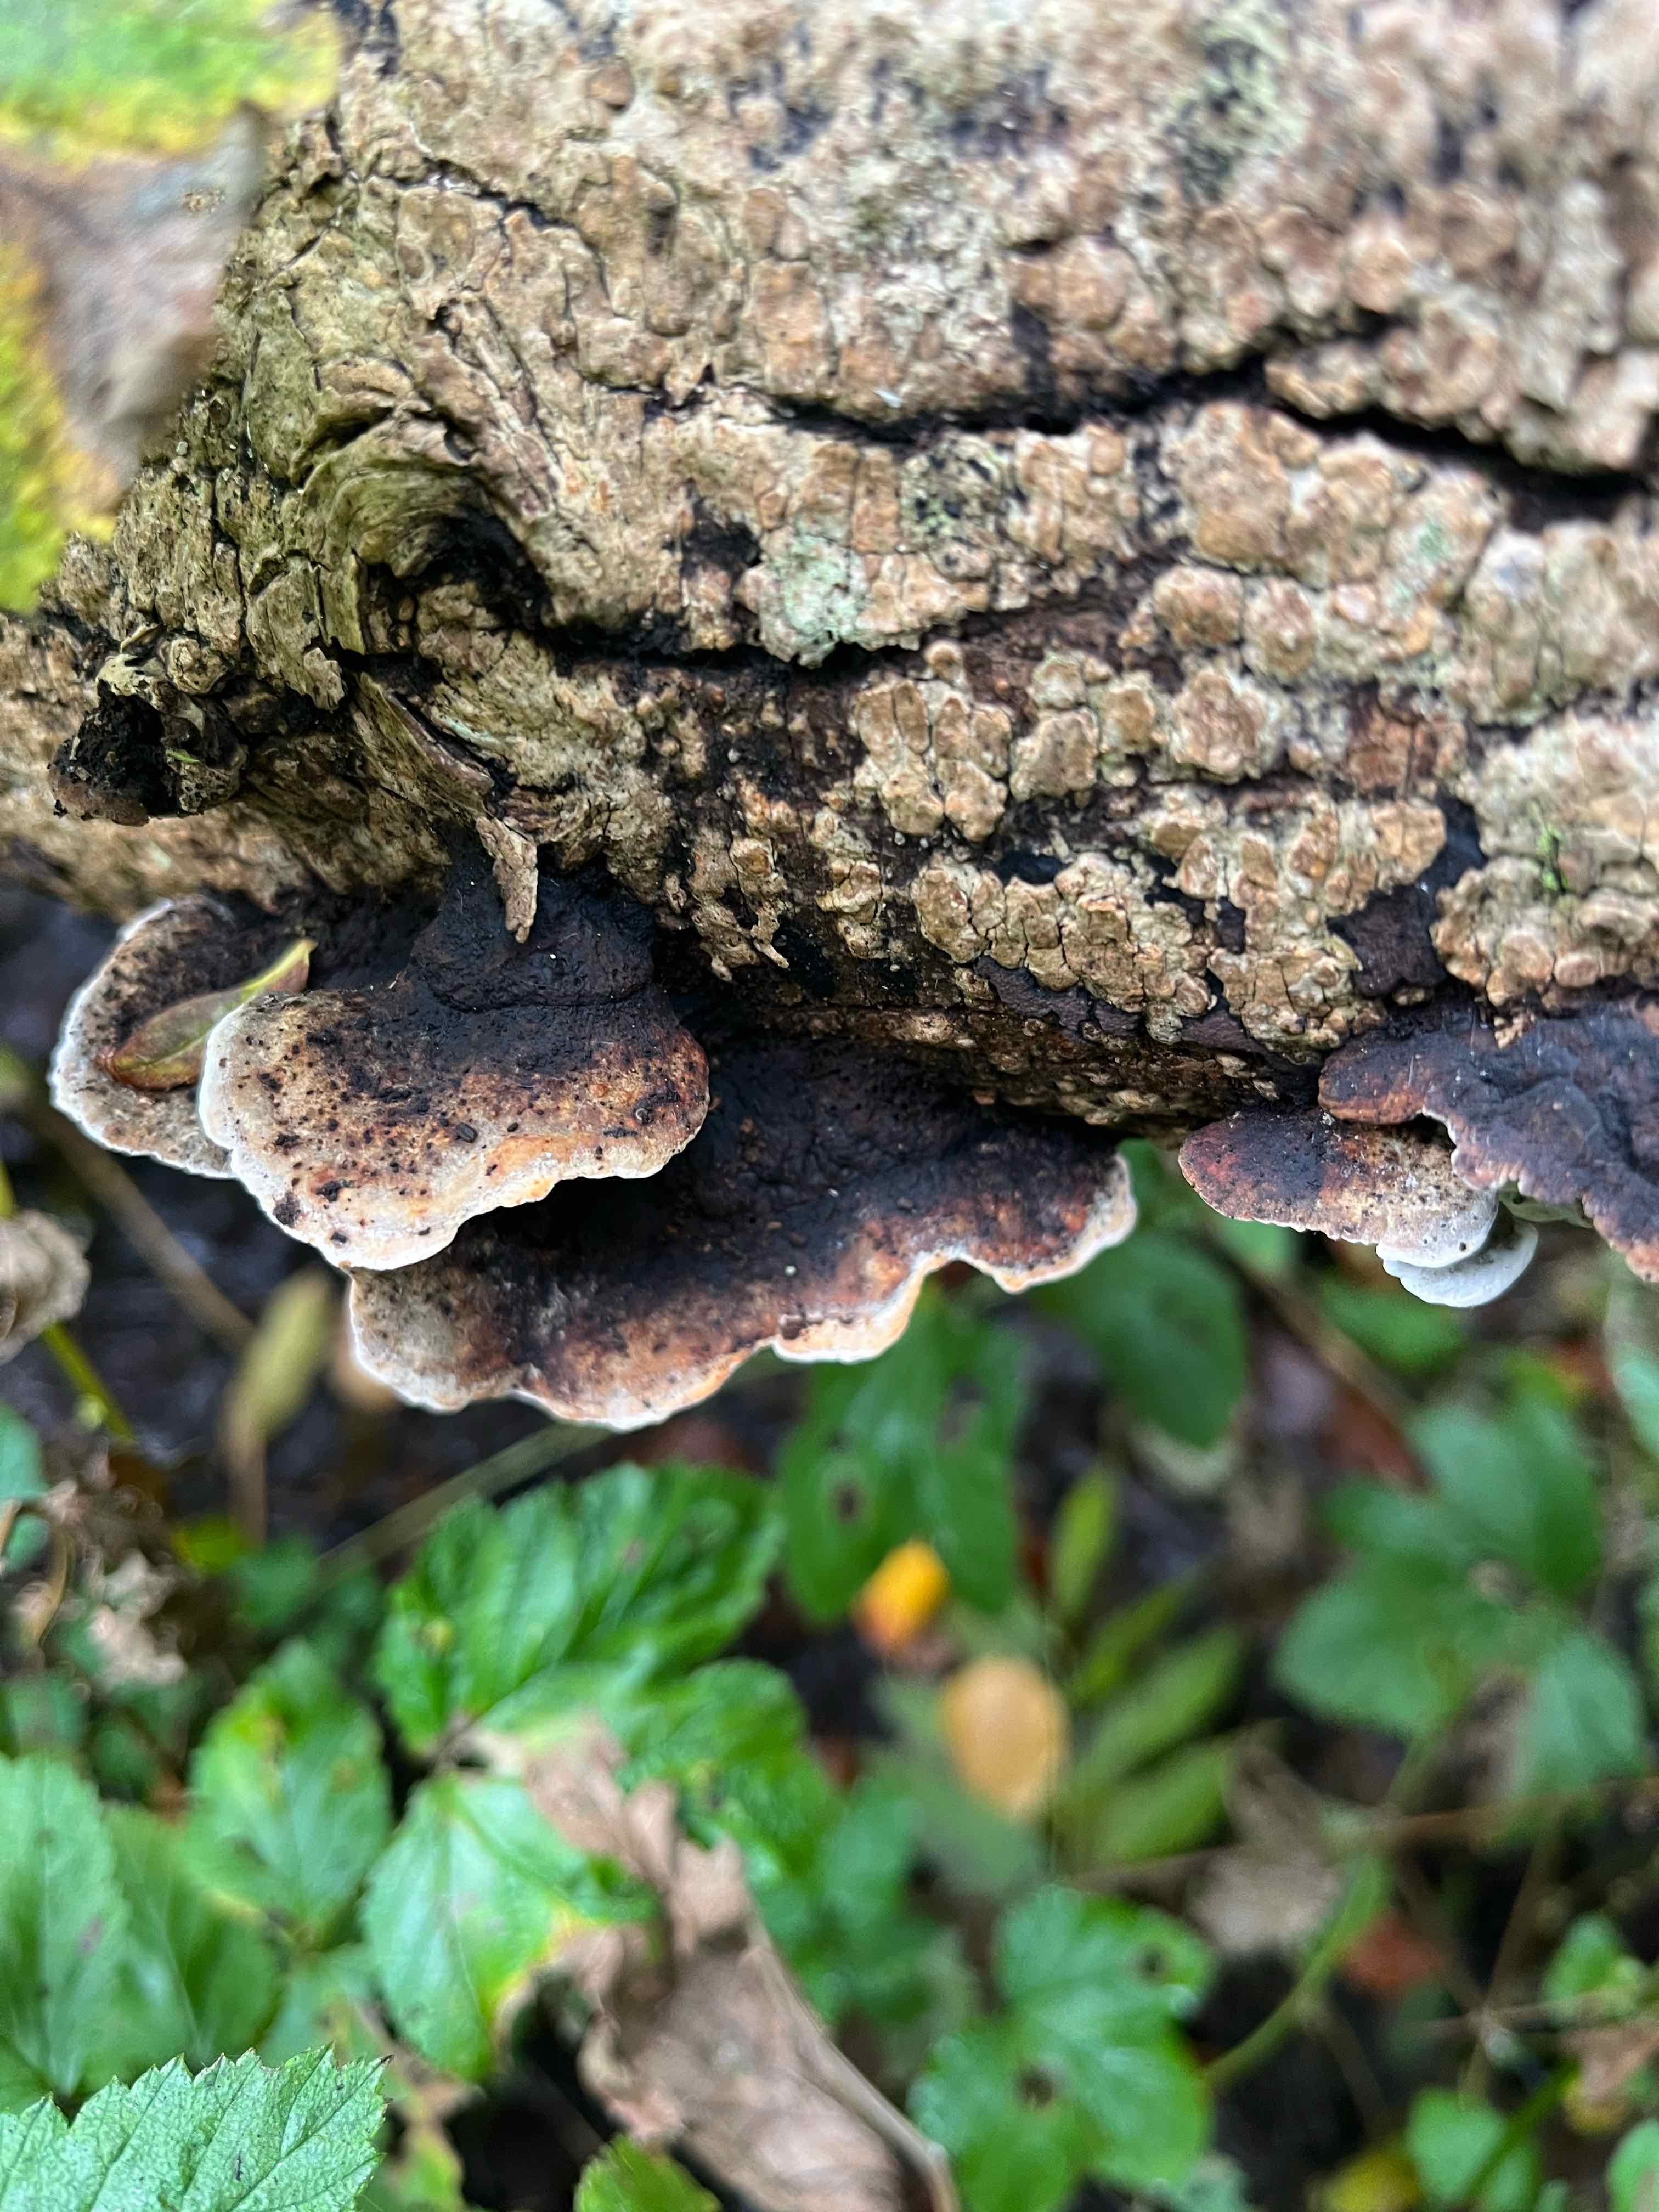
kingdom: Fungi
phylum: Basidiomycota
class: Agaricomycetes
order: Polyporales
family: Incrustoporiaceae
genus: Skeletocutis
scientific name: Skeletocutis nemoralis
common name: stor krystalporesvamp
